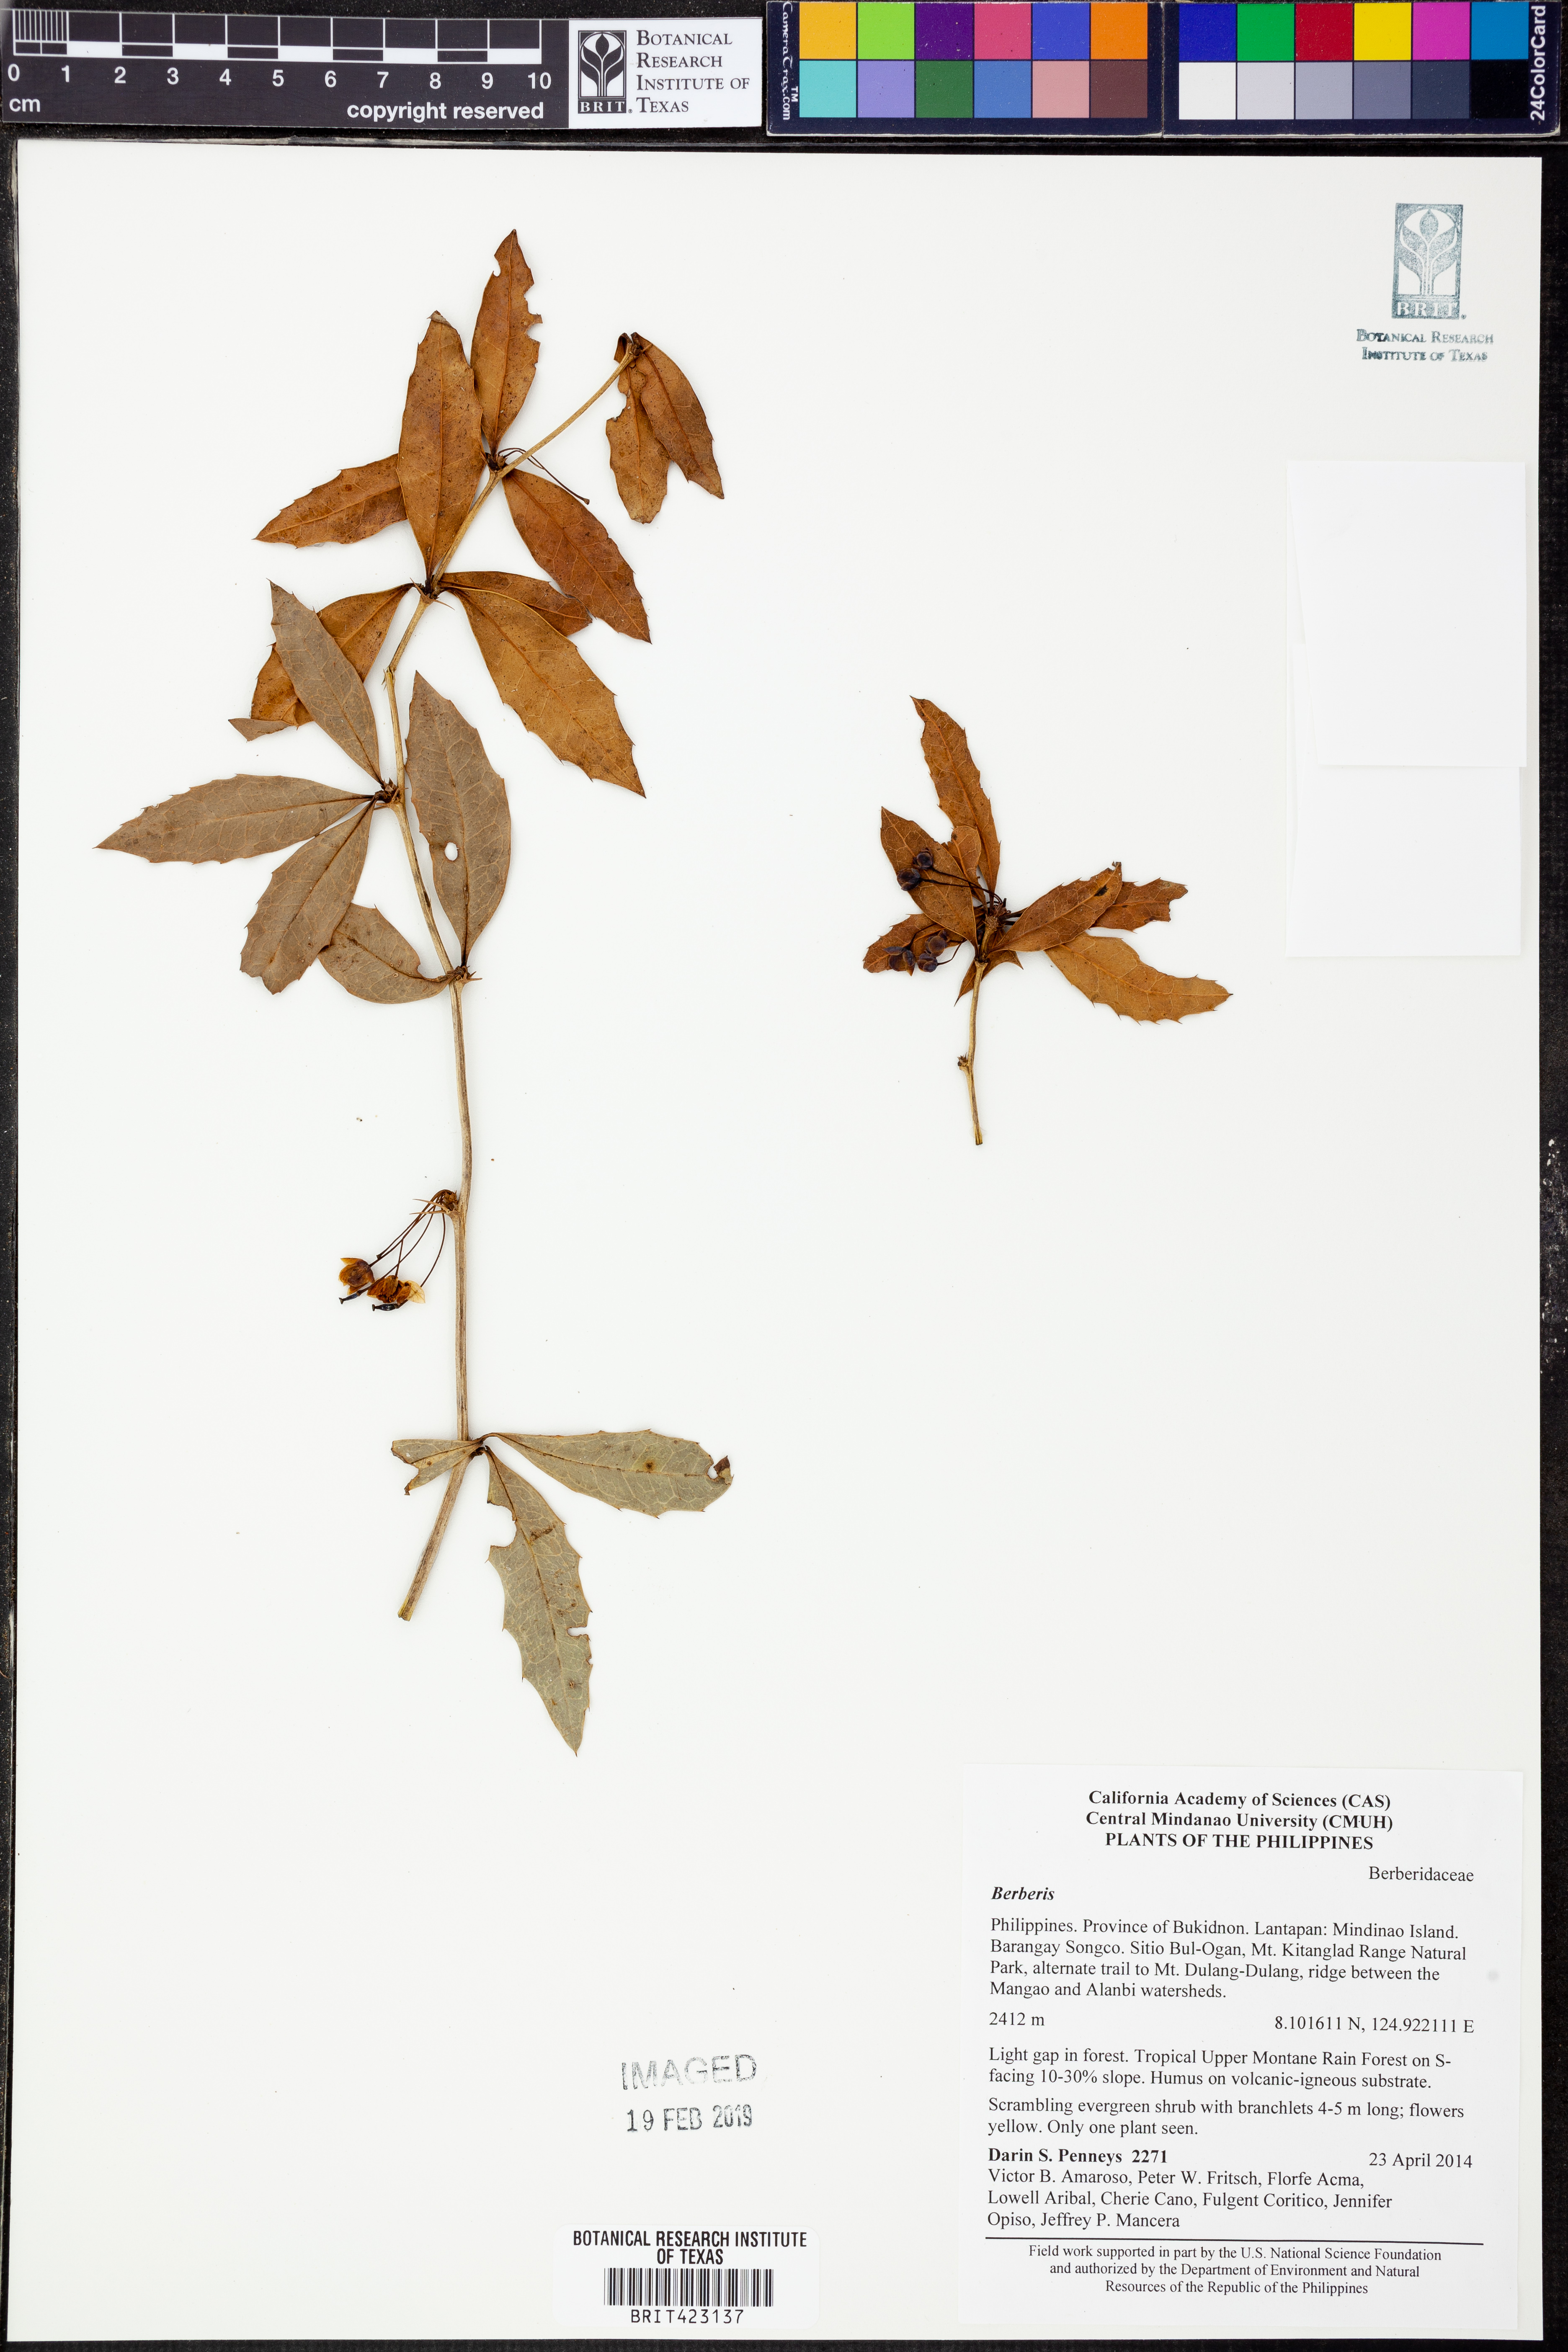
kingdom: Plantae
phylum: Tracheophyta
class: Magnoliopsida
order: Ranunculales
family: Berberidaceae
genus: Berberis
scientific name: Berberis
